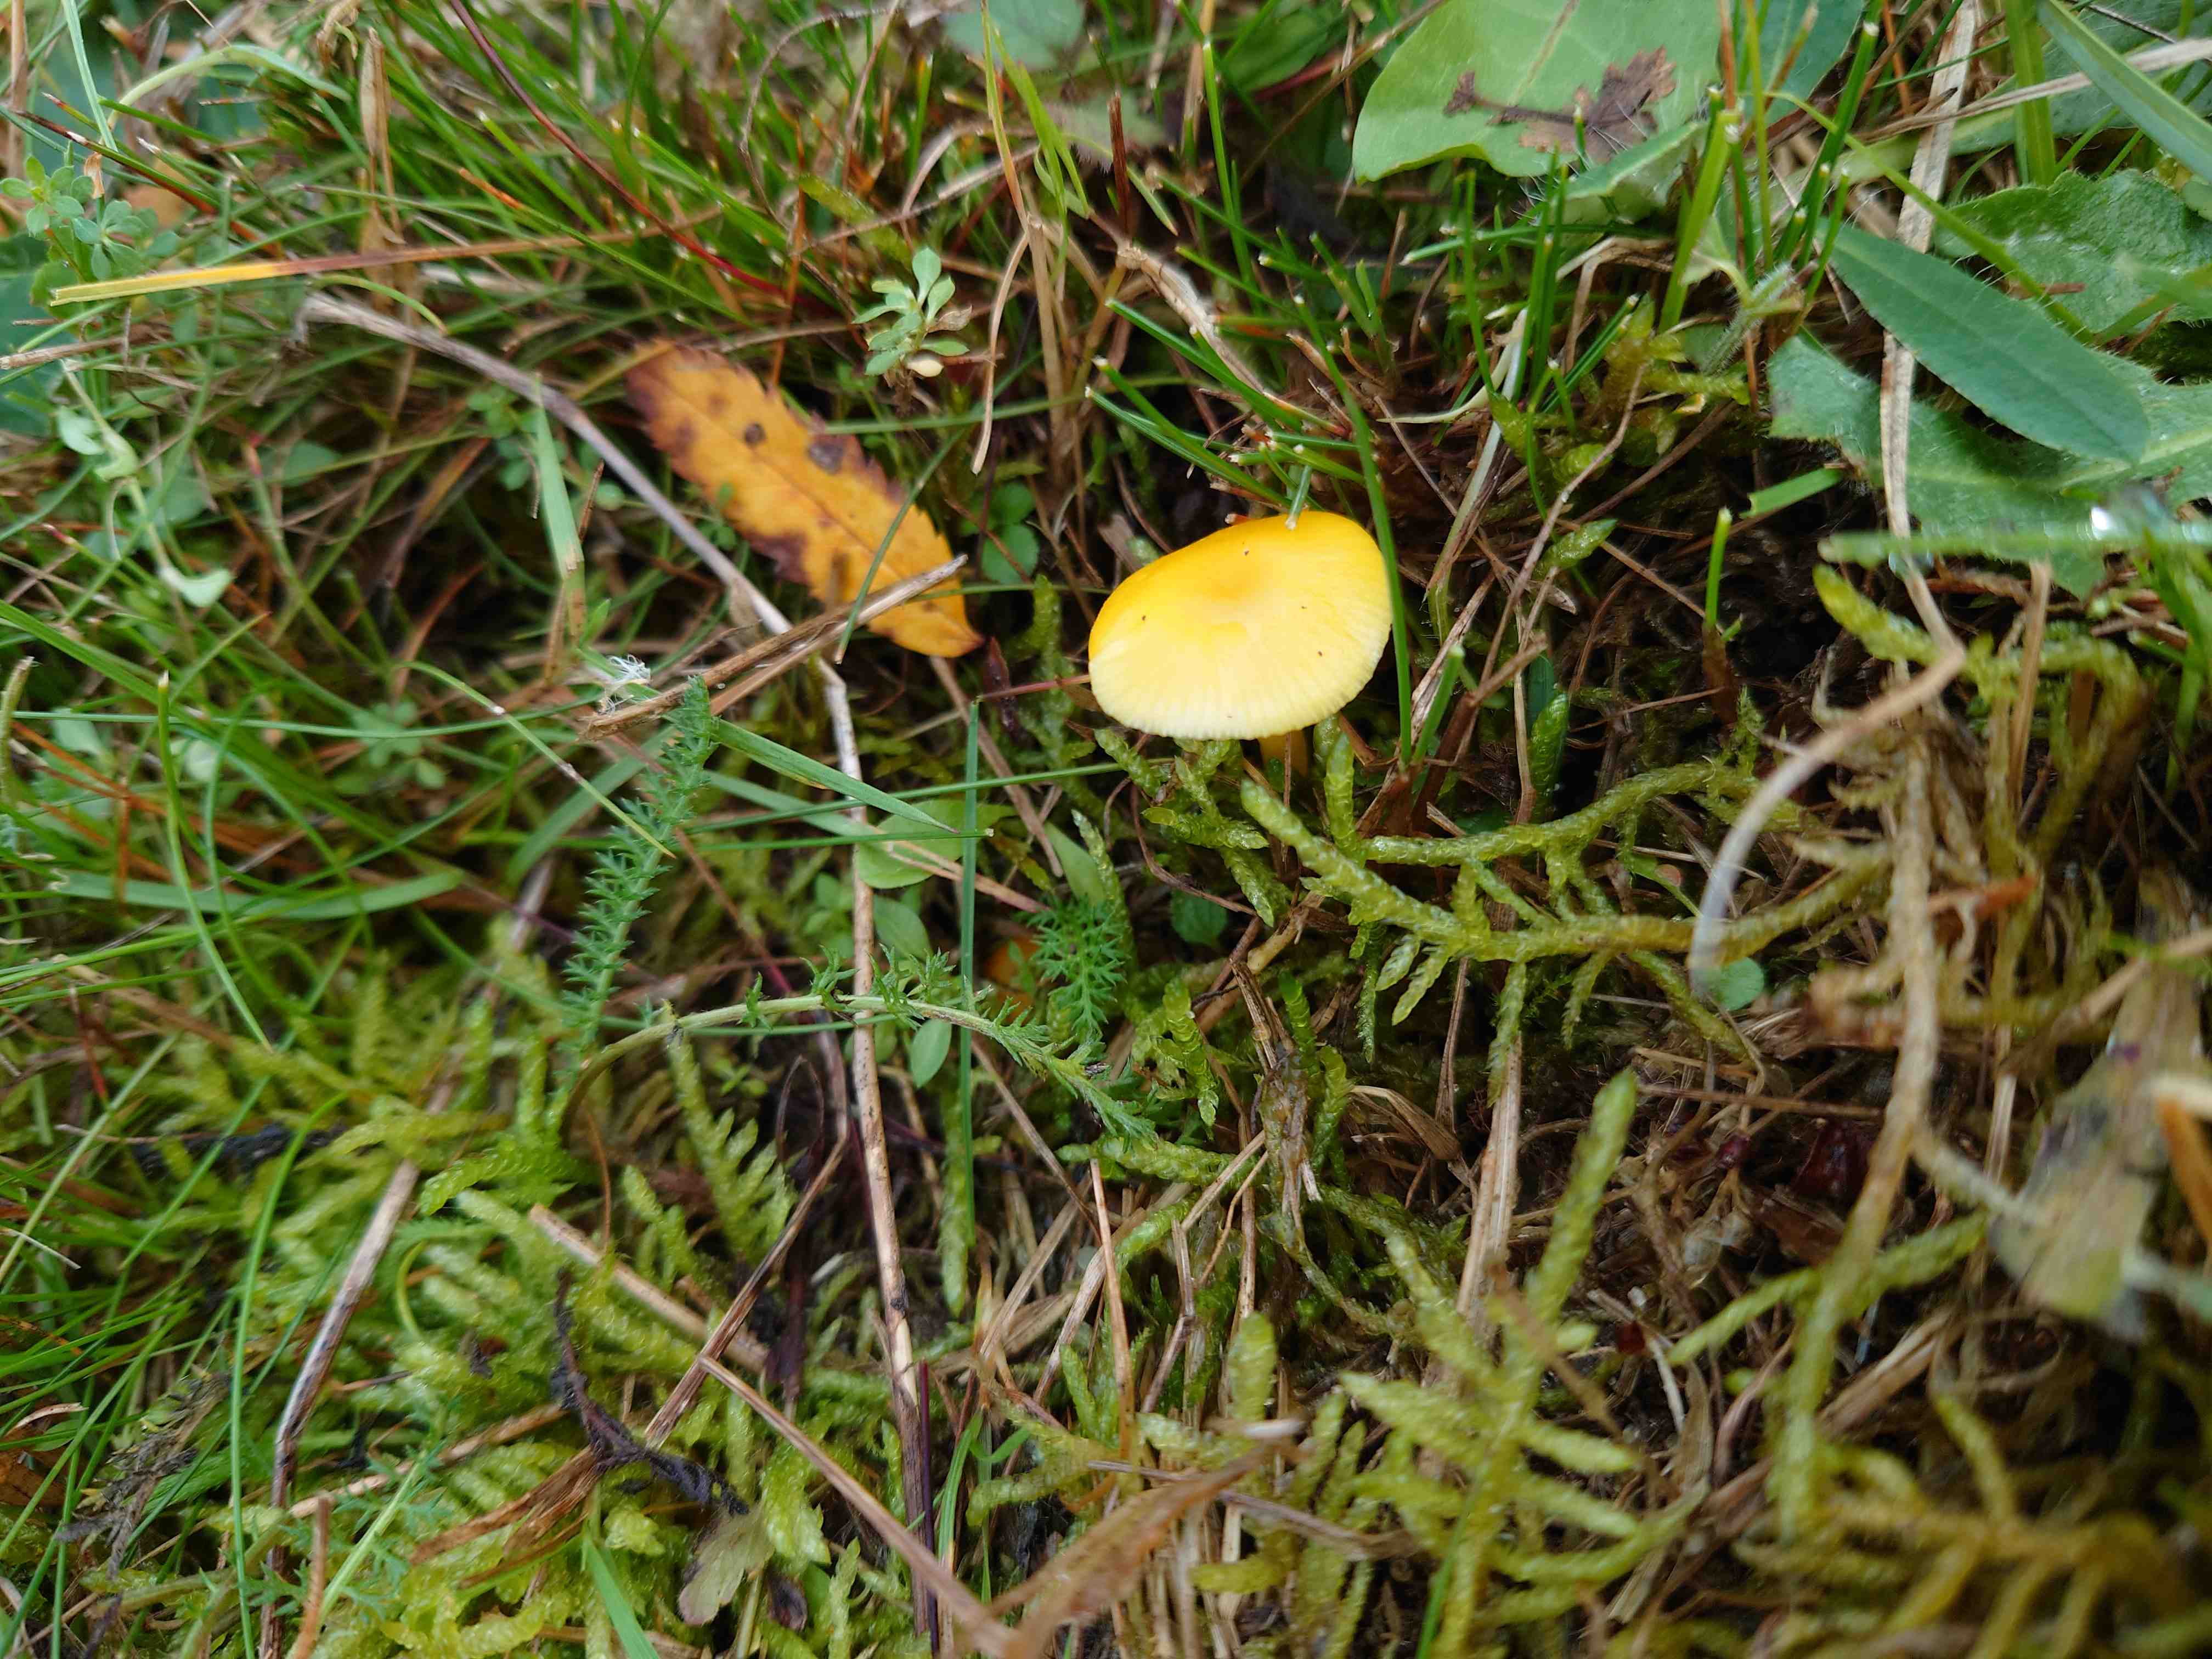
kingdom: Fungi
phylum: Basidiomycota
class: Agaricomycetes
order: Agaricales
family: Hygrophoraceae
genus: Hygrocybe
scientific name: Hygrocybe ceracea
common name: voksgul vokshat
